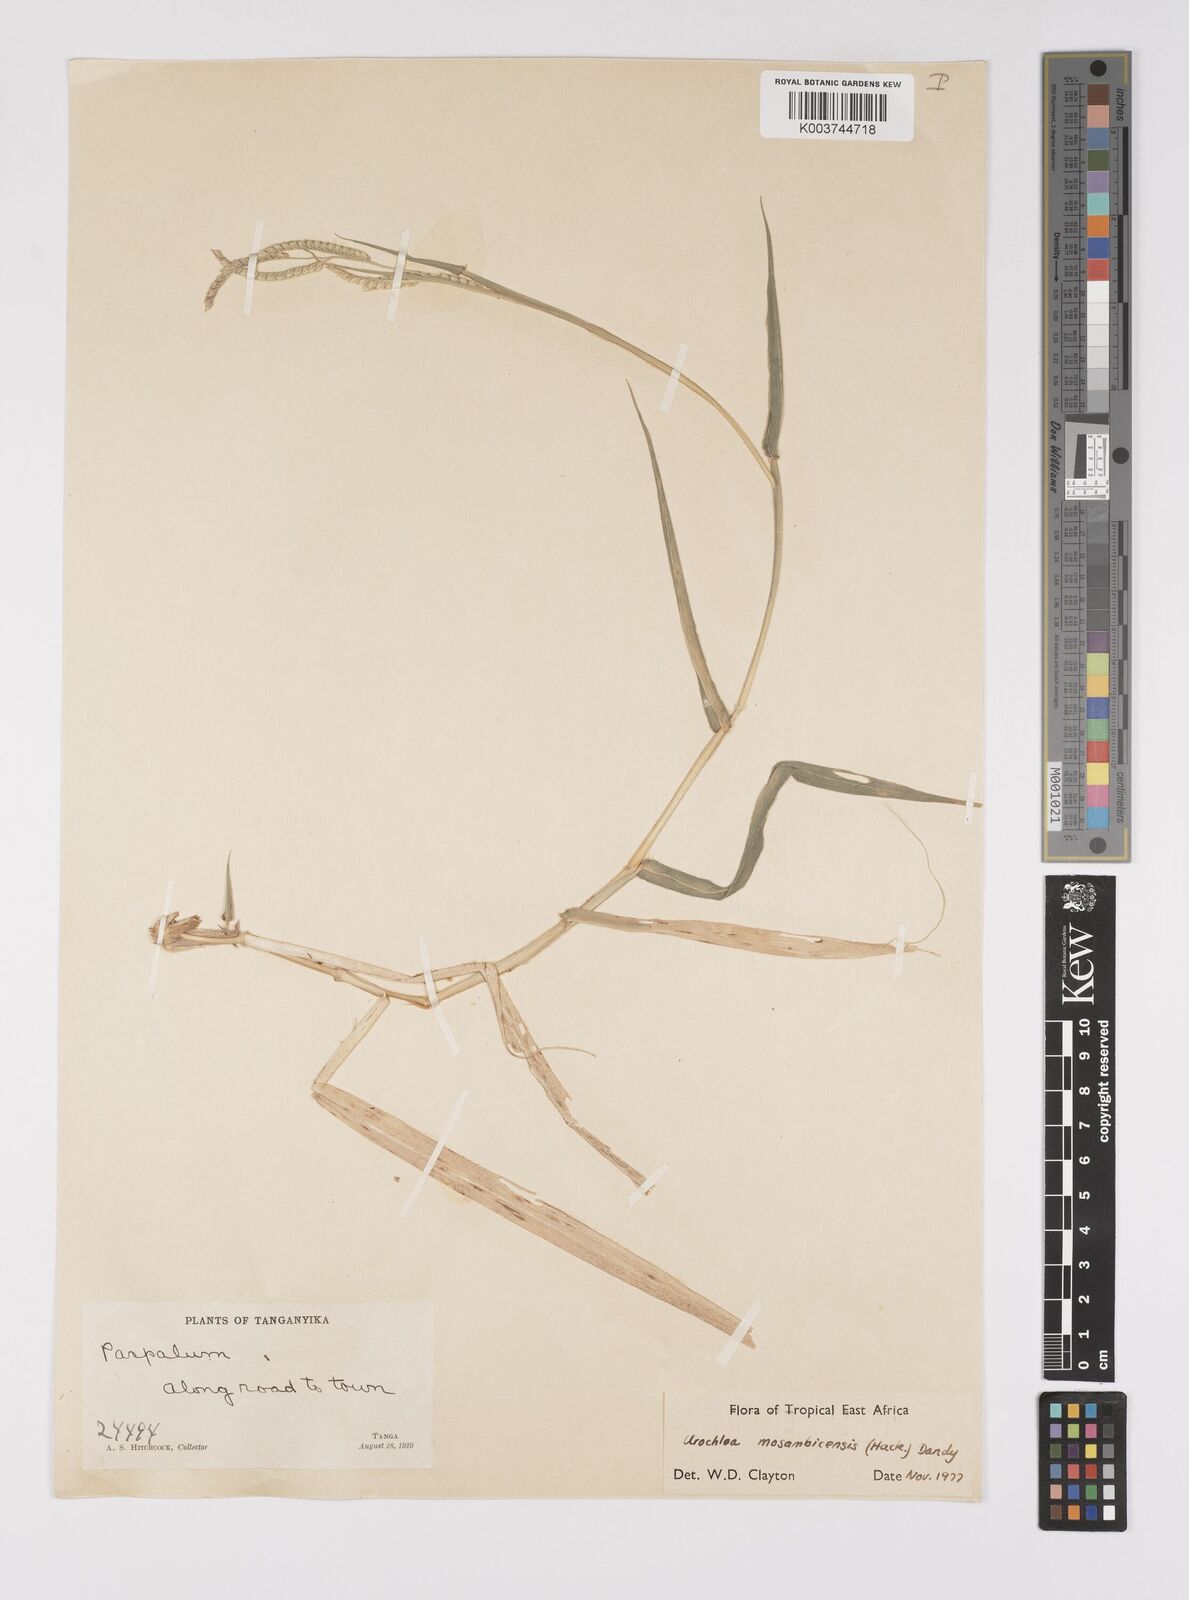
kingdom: Plantae
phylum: Tracheophyta
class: Liliopsida
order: Poales
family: Poaceae
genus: Urochloa
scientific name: Urochloa trichopus
